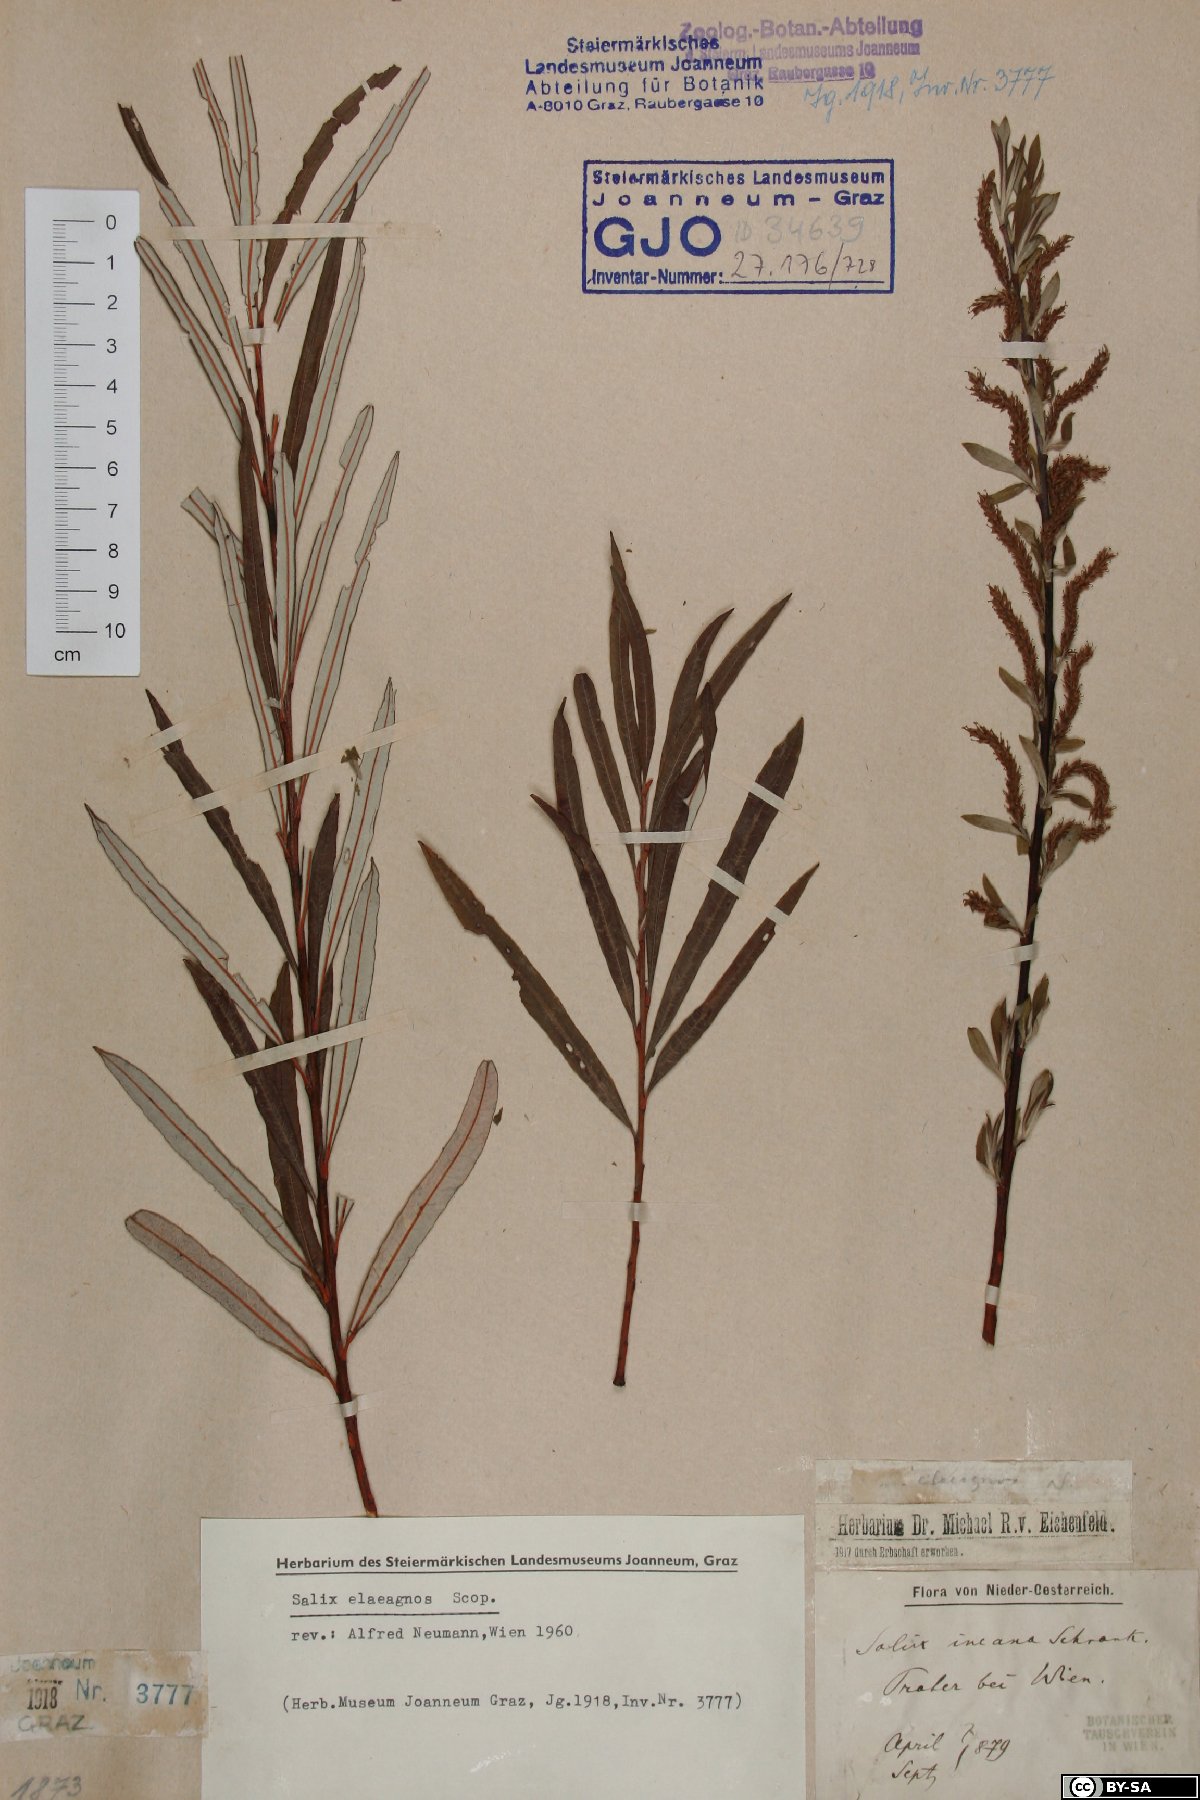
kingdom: Plantae
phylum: Tracheophyta
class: Magnoliopsida
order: Malpighiales
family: Salicaceae
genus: Salix
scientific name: Salix eleagnos
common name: Elaeagnus willow
